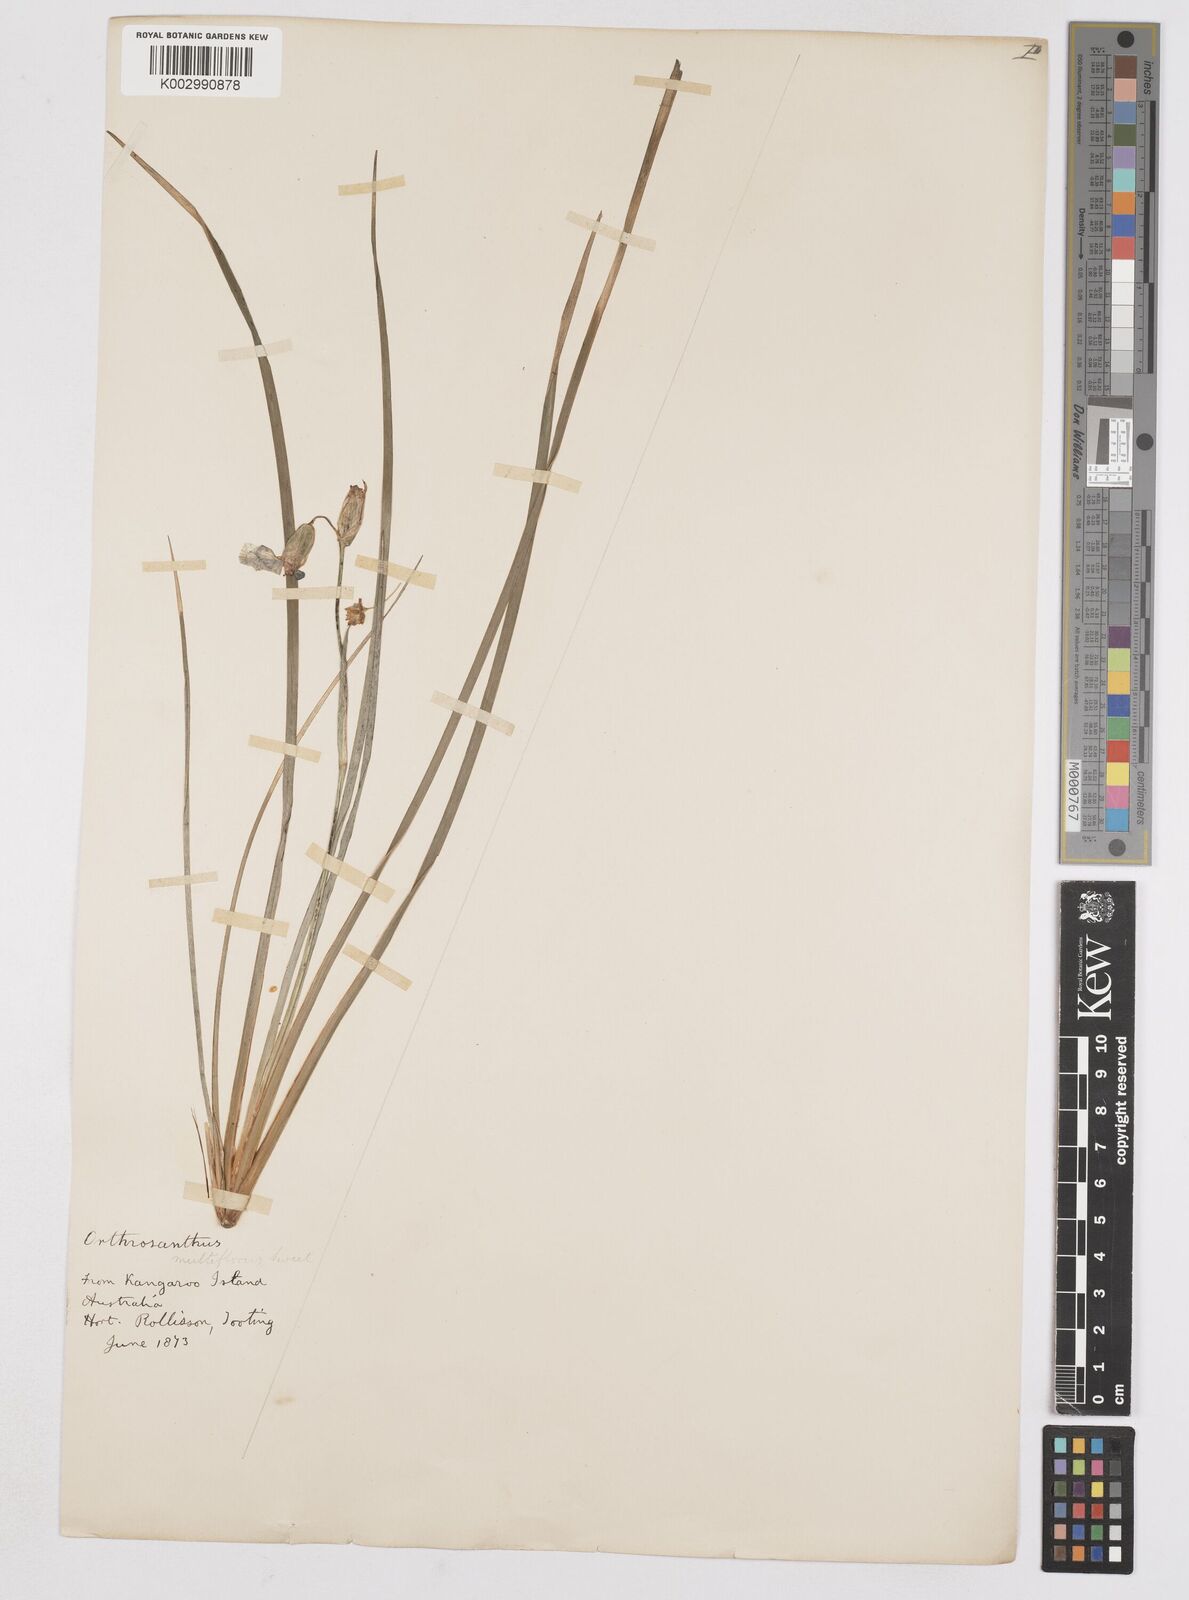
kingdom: Plantae
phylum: Tracheophyta
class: Liliopsida
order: Asparagales
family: Iridaceae
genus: Orthrosanthus
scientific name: Orthrosanthus multiflorus
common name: Morning-flag
